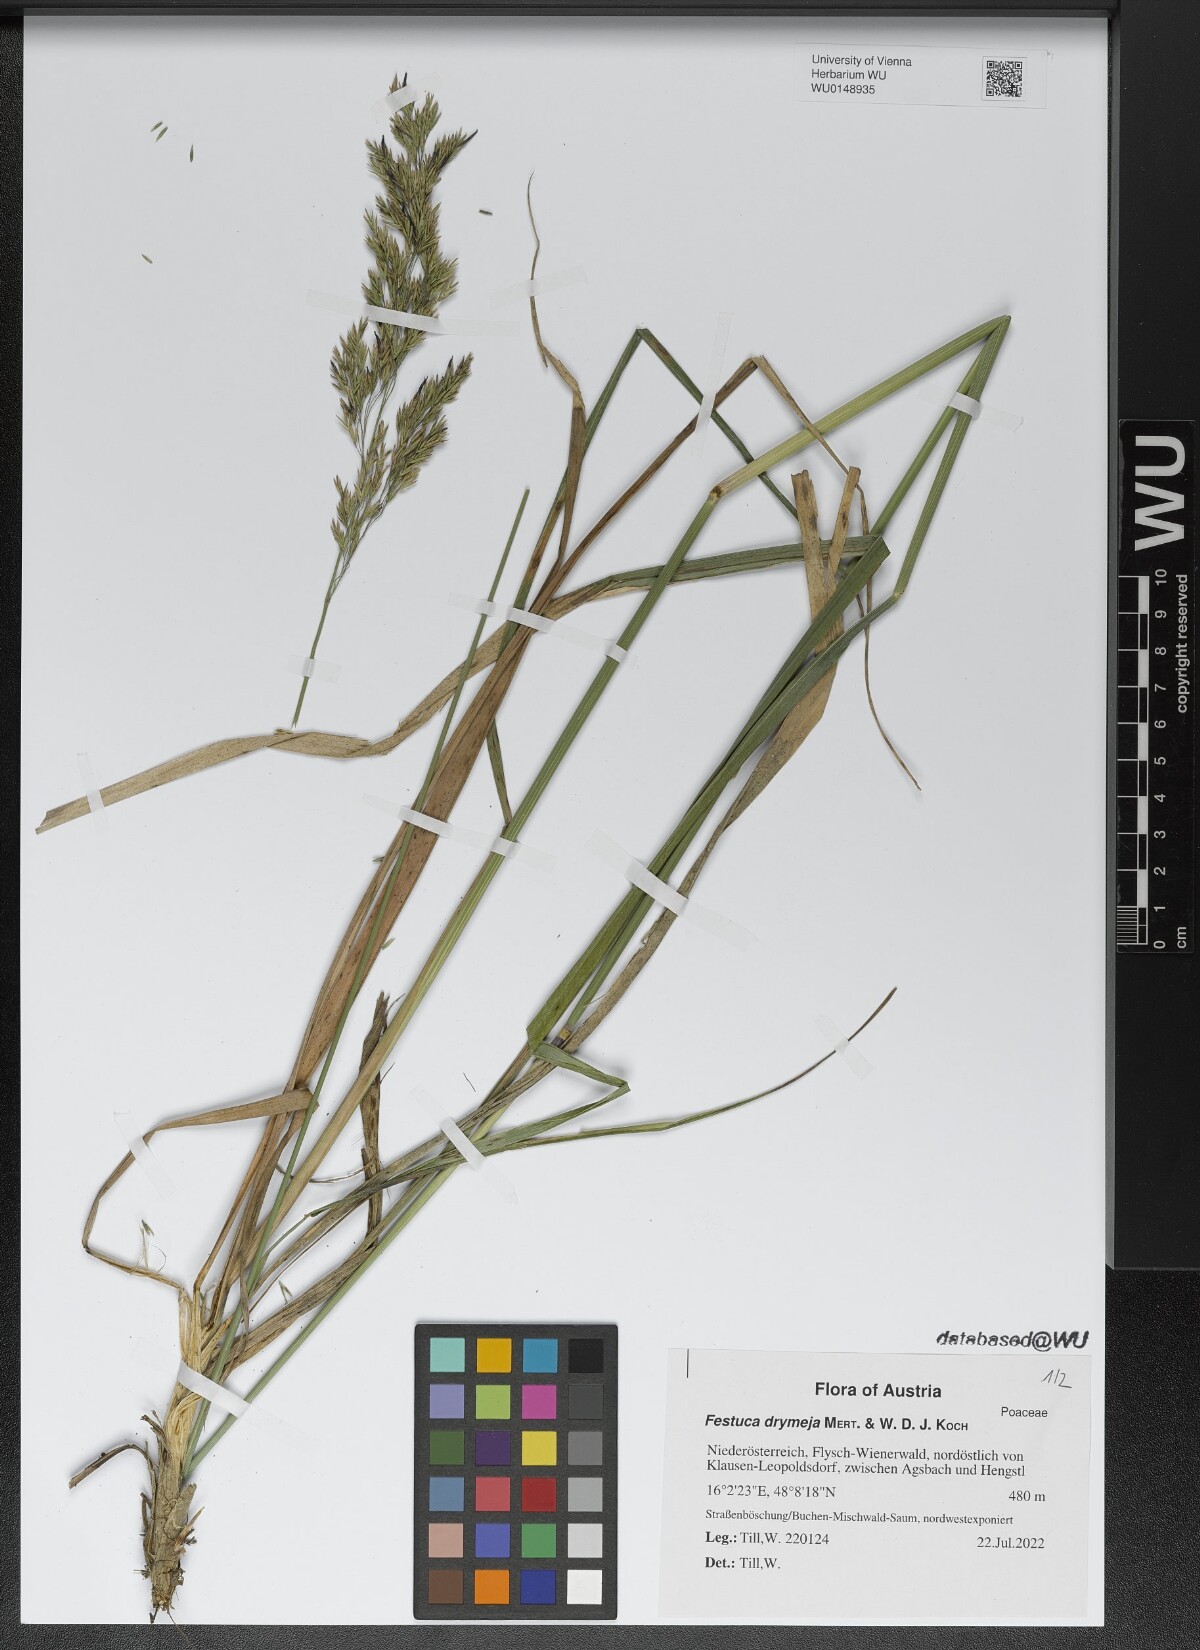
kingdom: Plantae
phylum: Tracheophyta
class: Liliopsida
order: Poales
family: Poaceae
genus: Festuca
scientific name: Festuca drymeja
